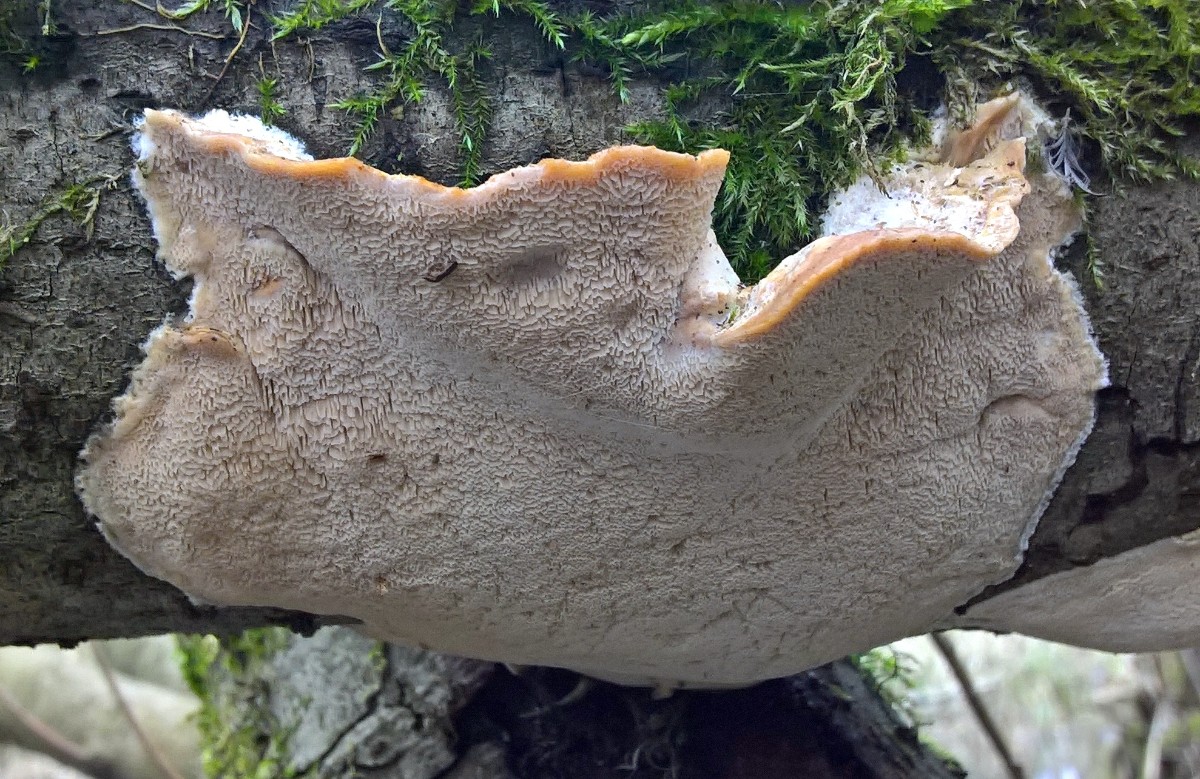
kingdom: Fungi
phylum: Basidiomycota
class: Agaricomycetes
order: Polyporales
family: Phanerochaetaceae
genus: Bjerkandera
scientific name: Bjerkandera fumosa
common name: grågul sodporesvamp
